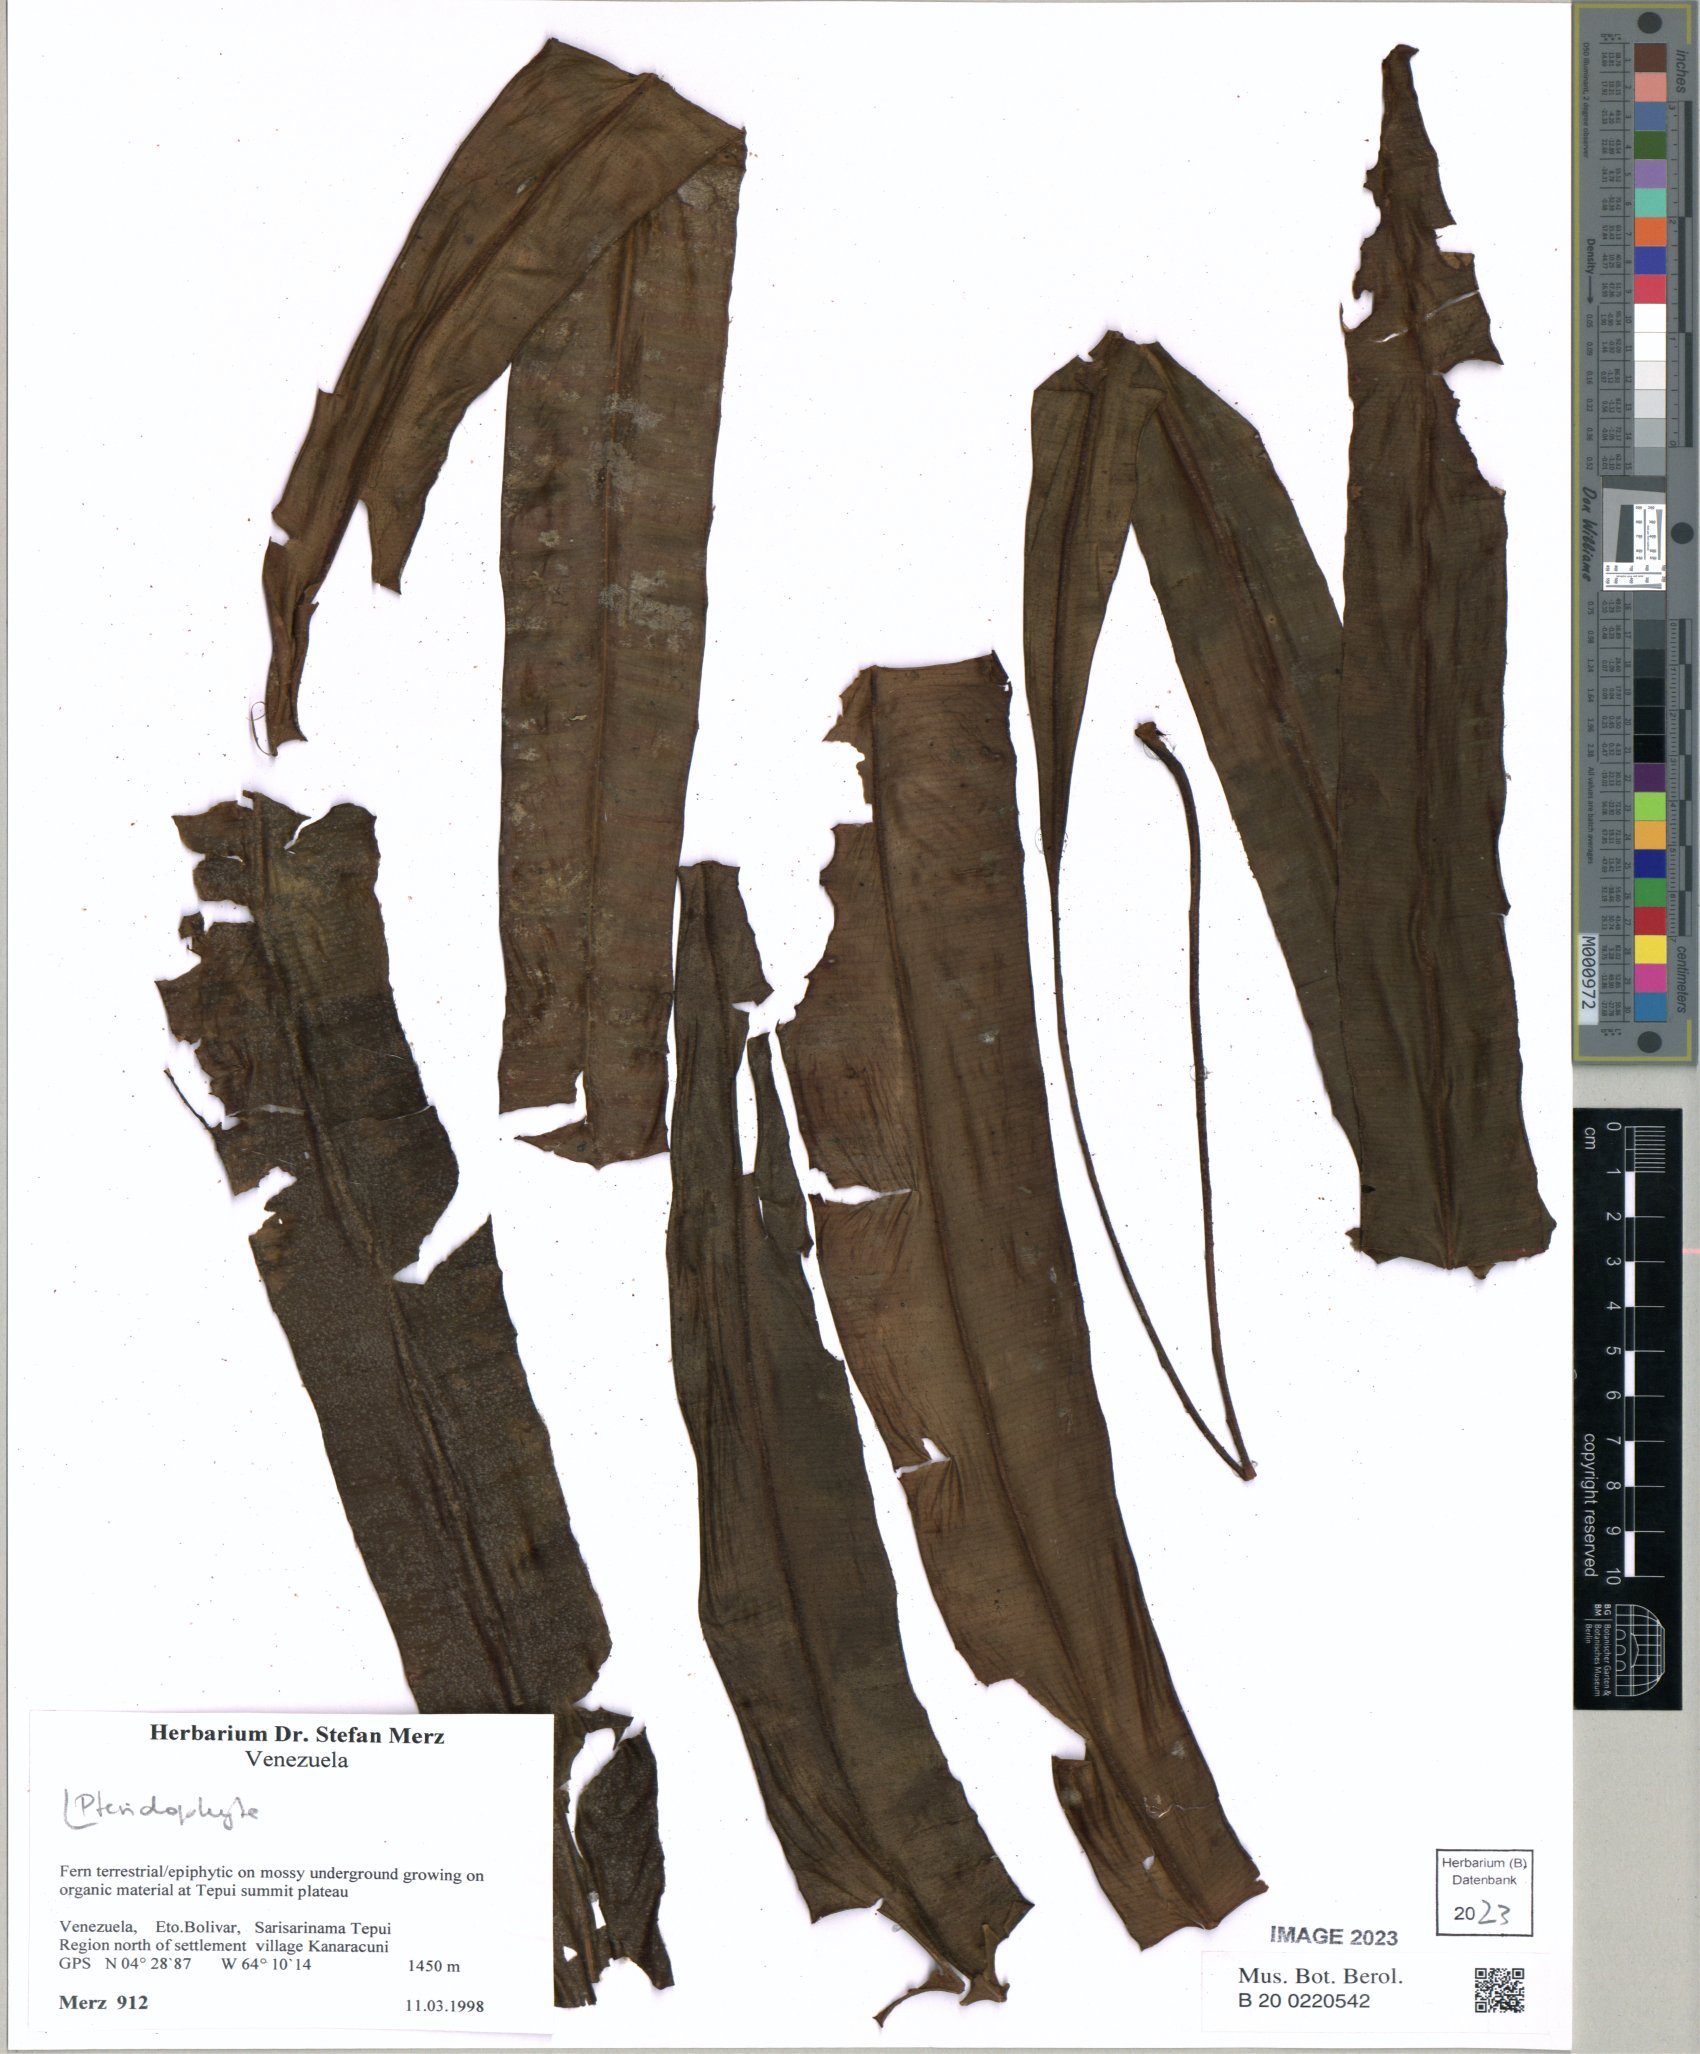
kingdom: Plantae
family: Pteridophyta
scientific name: Pteridophyta
